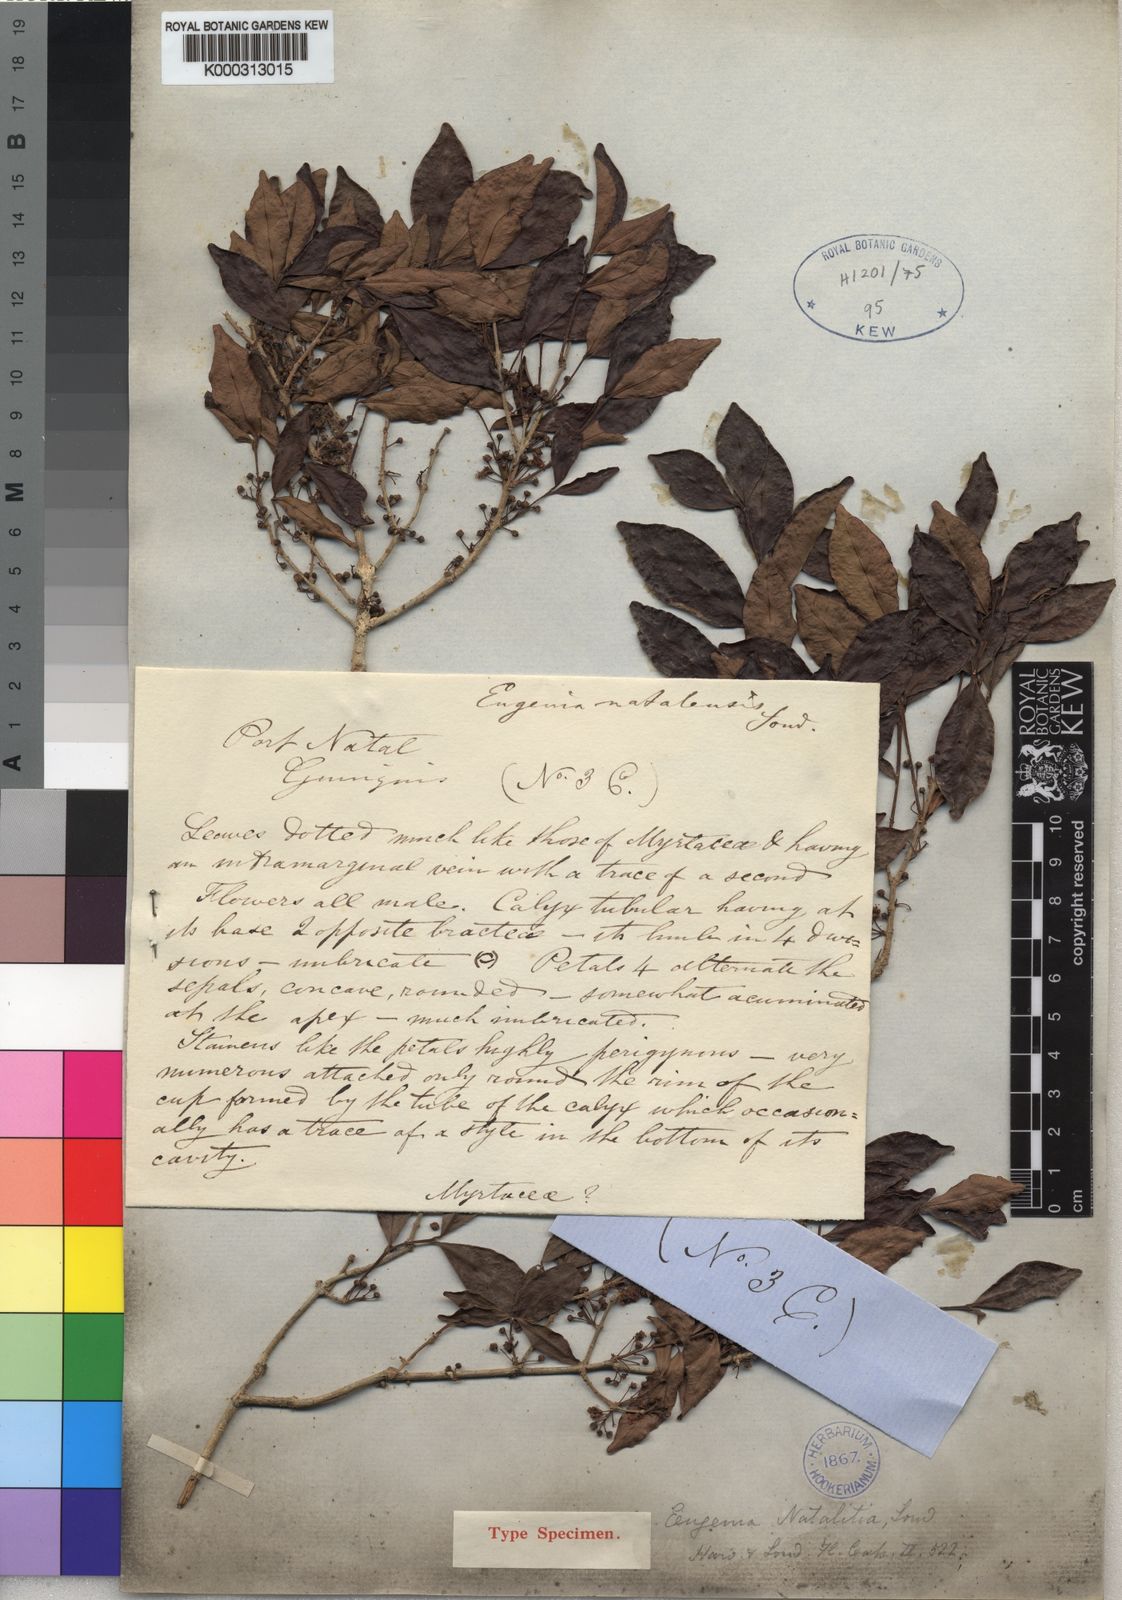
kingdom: Plantae
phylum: Tracheophyta
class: Magnoliopsida
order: Myrtales
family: Myrtaceae
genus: Eugenia
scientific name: Eugenia natalitia
